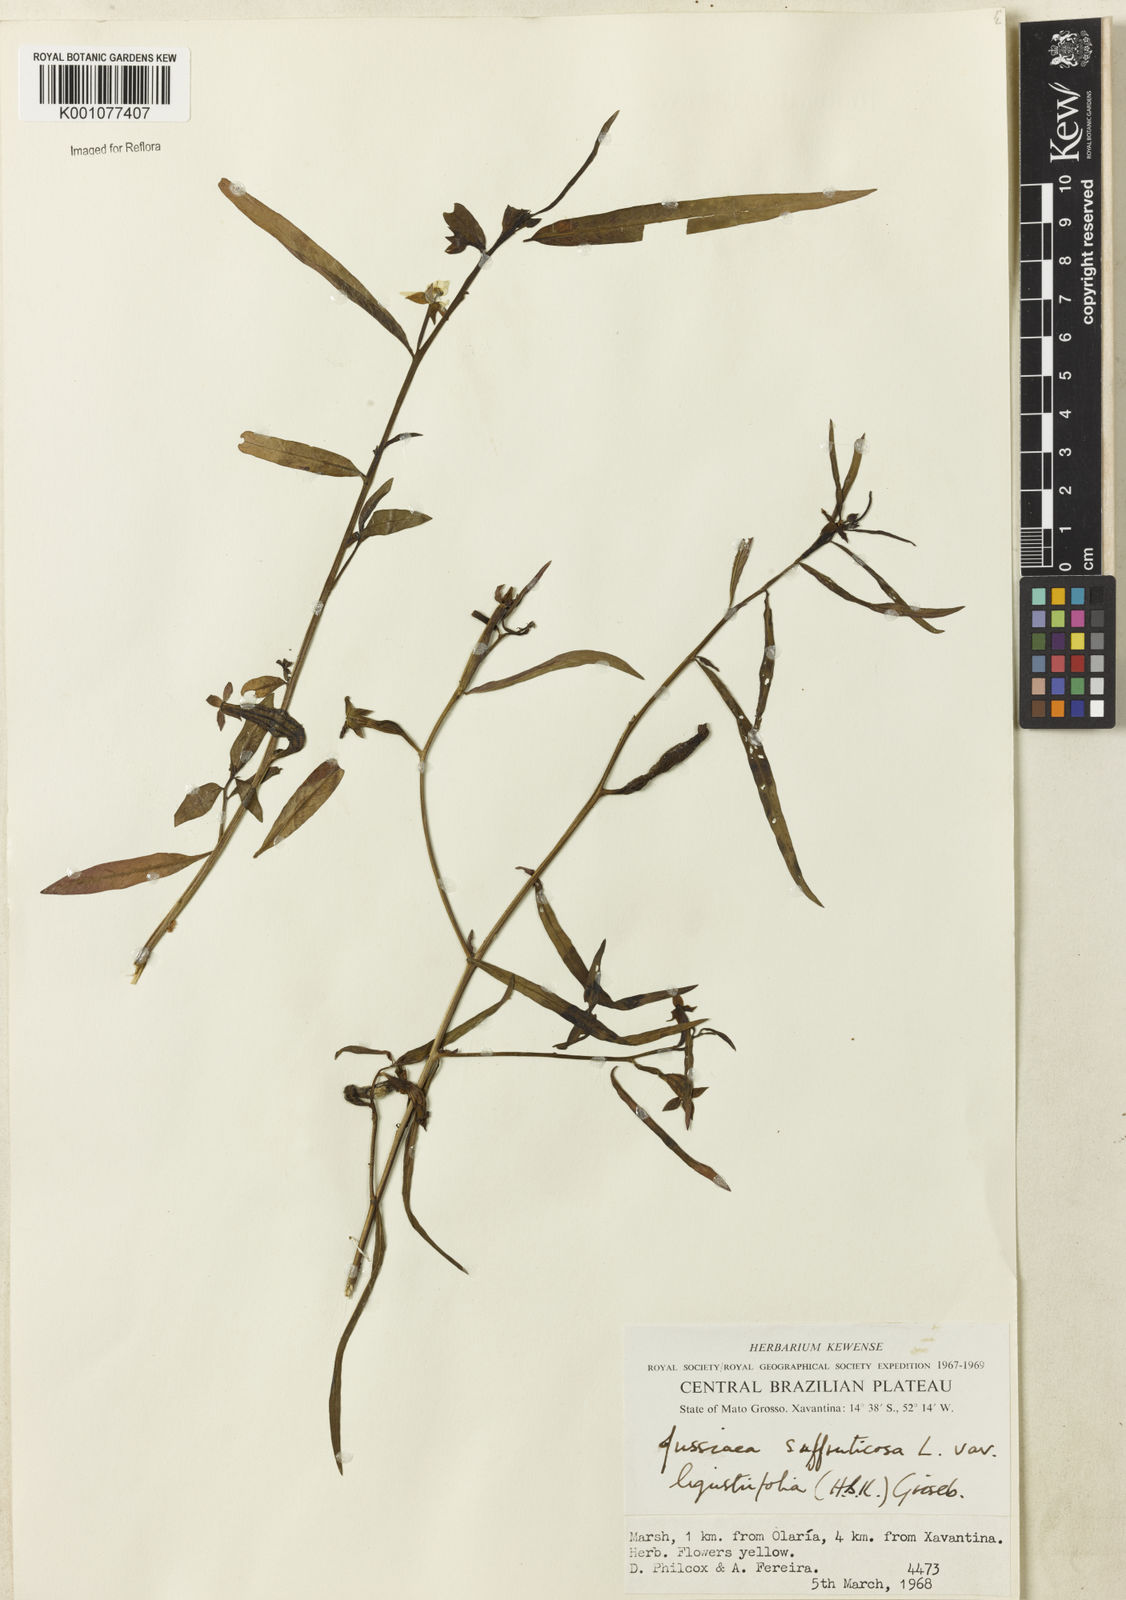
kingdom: Plantae
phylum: Tracheophyta
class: Magnoliopsida
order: Myrtales
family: Onagraceae
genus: Ludwigia
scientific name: Ludwigia octovalvis
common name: Water-primrose
